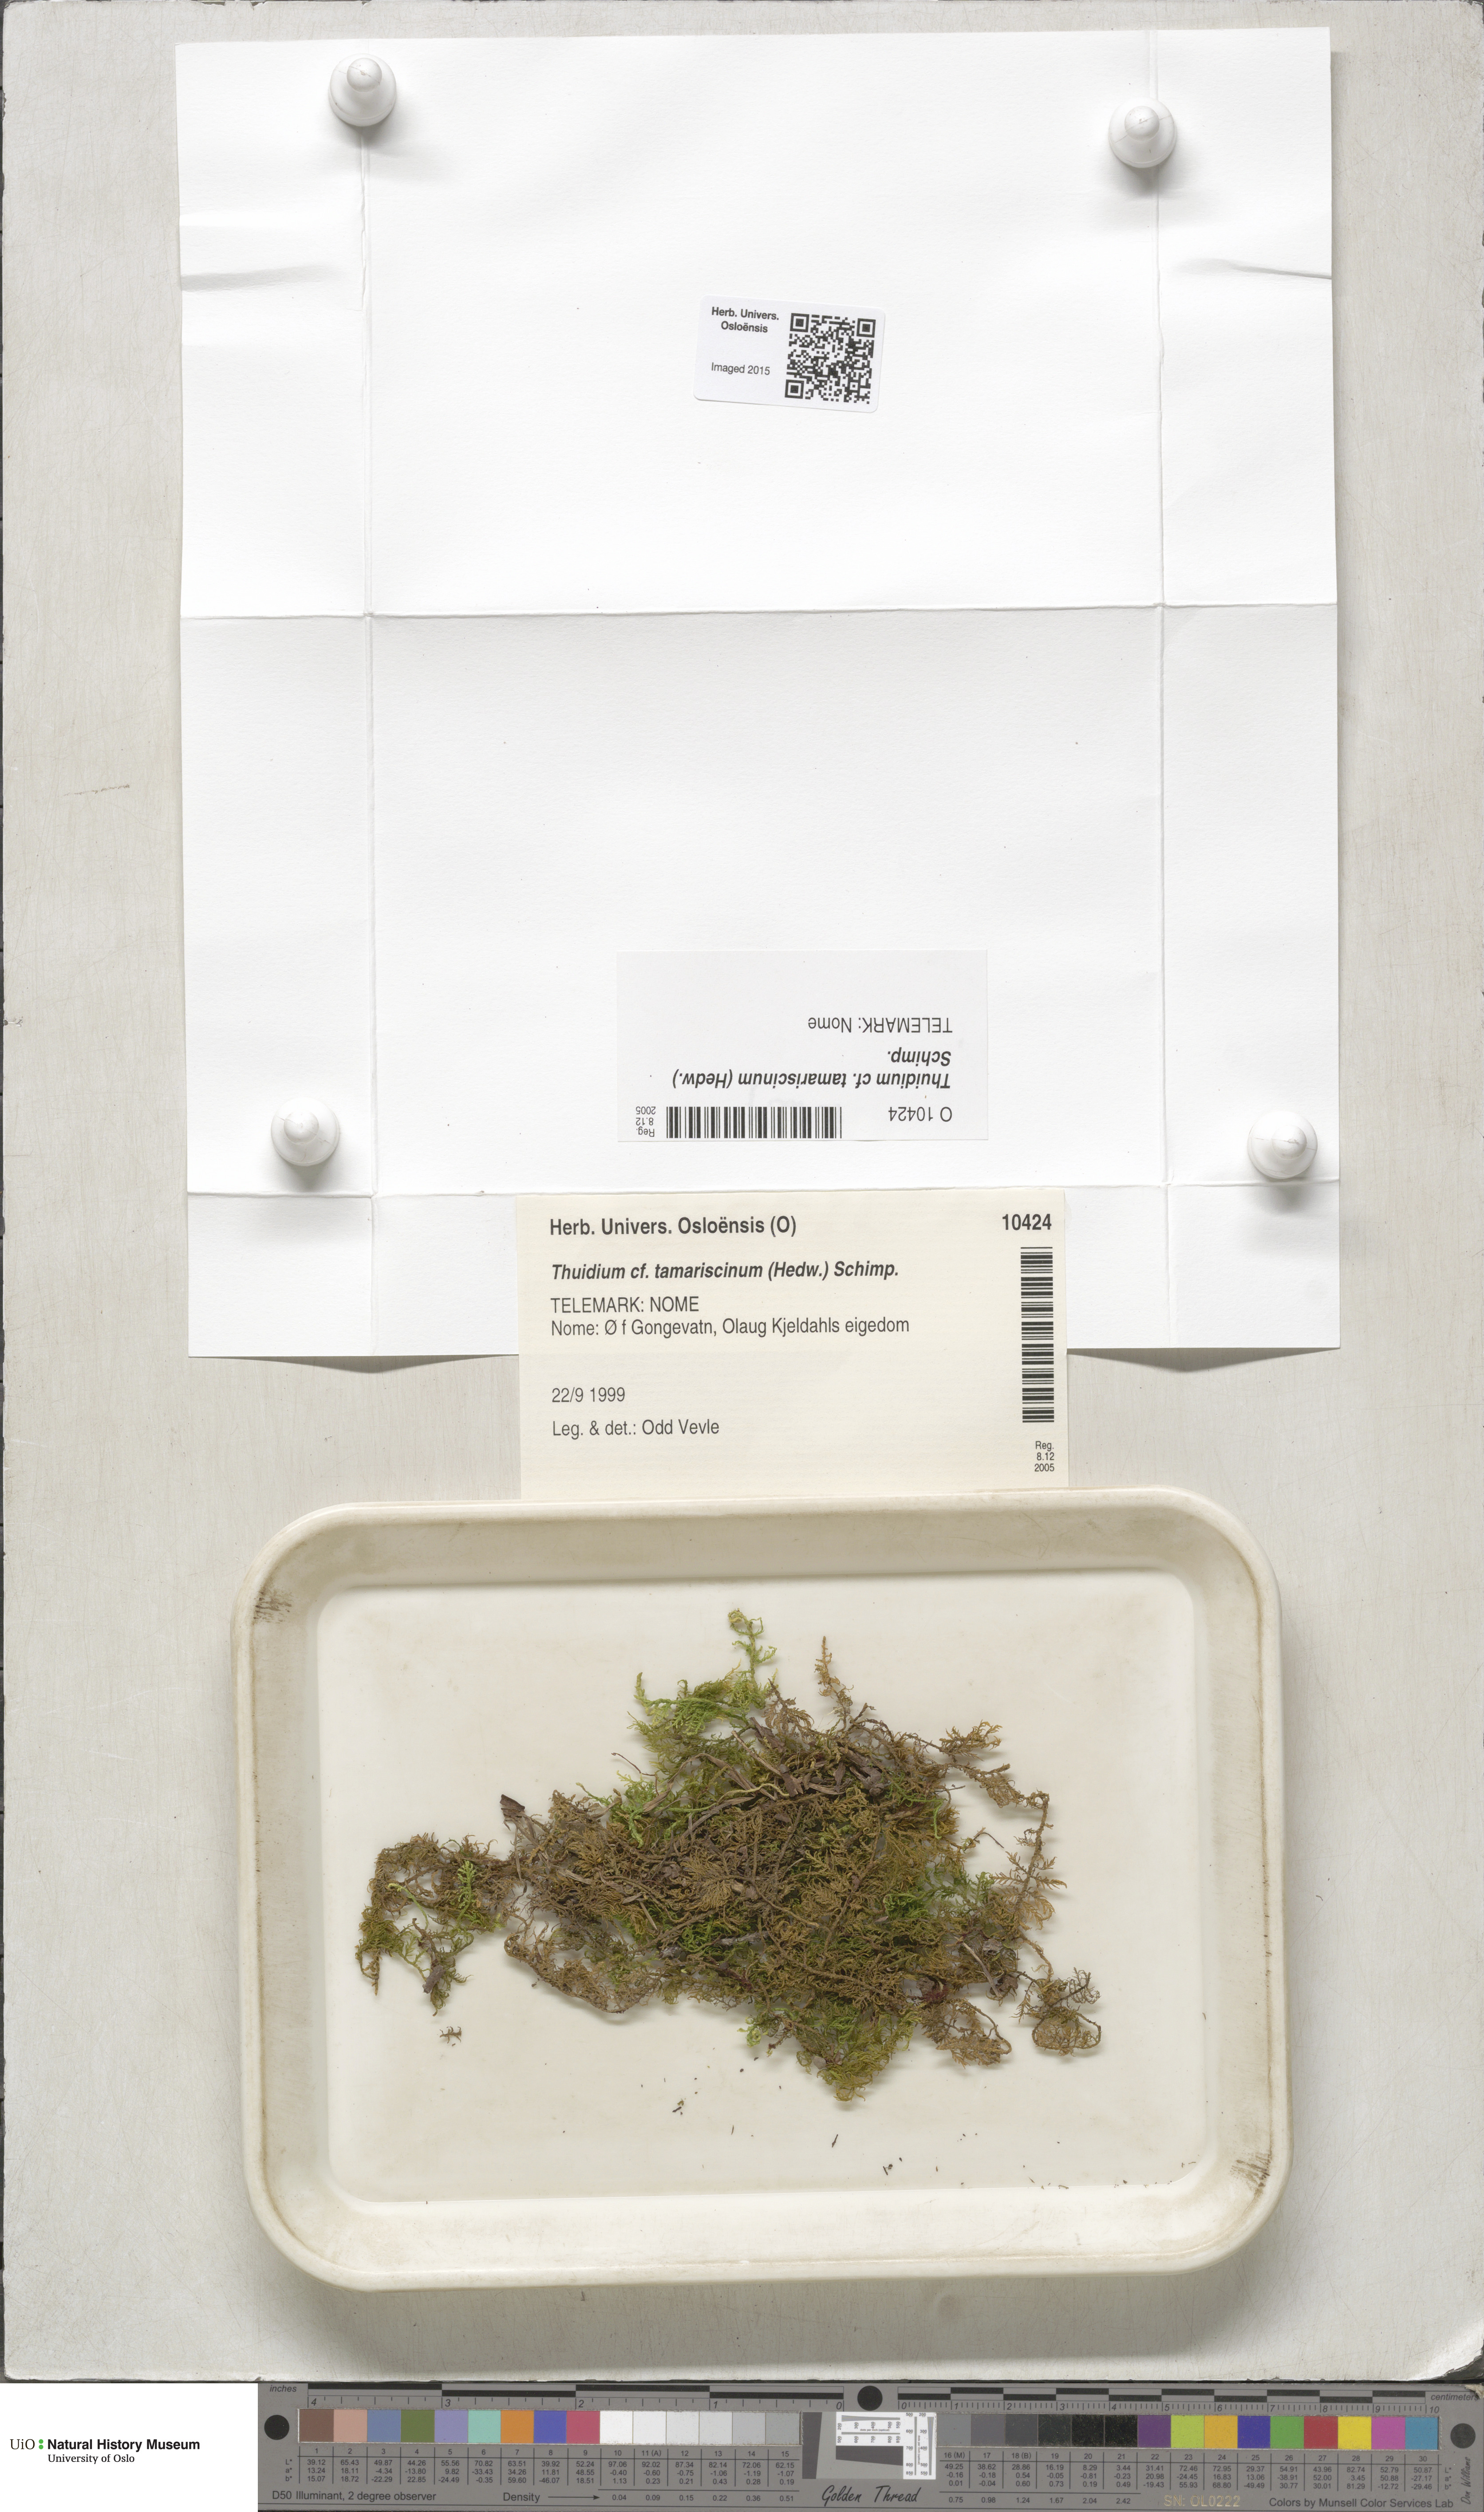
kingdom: Plantae
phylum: Bryophyta
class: Bryopsida
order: Hypnales
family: Thuidiaceae
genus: Thuidium
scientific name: Thuidium tamariscinum
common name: Common tamarisk-moss
